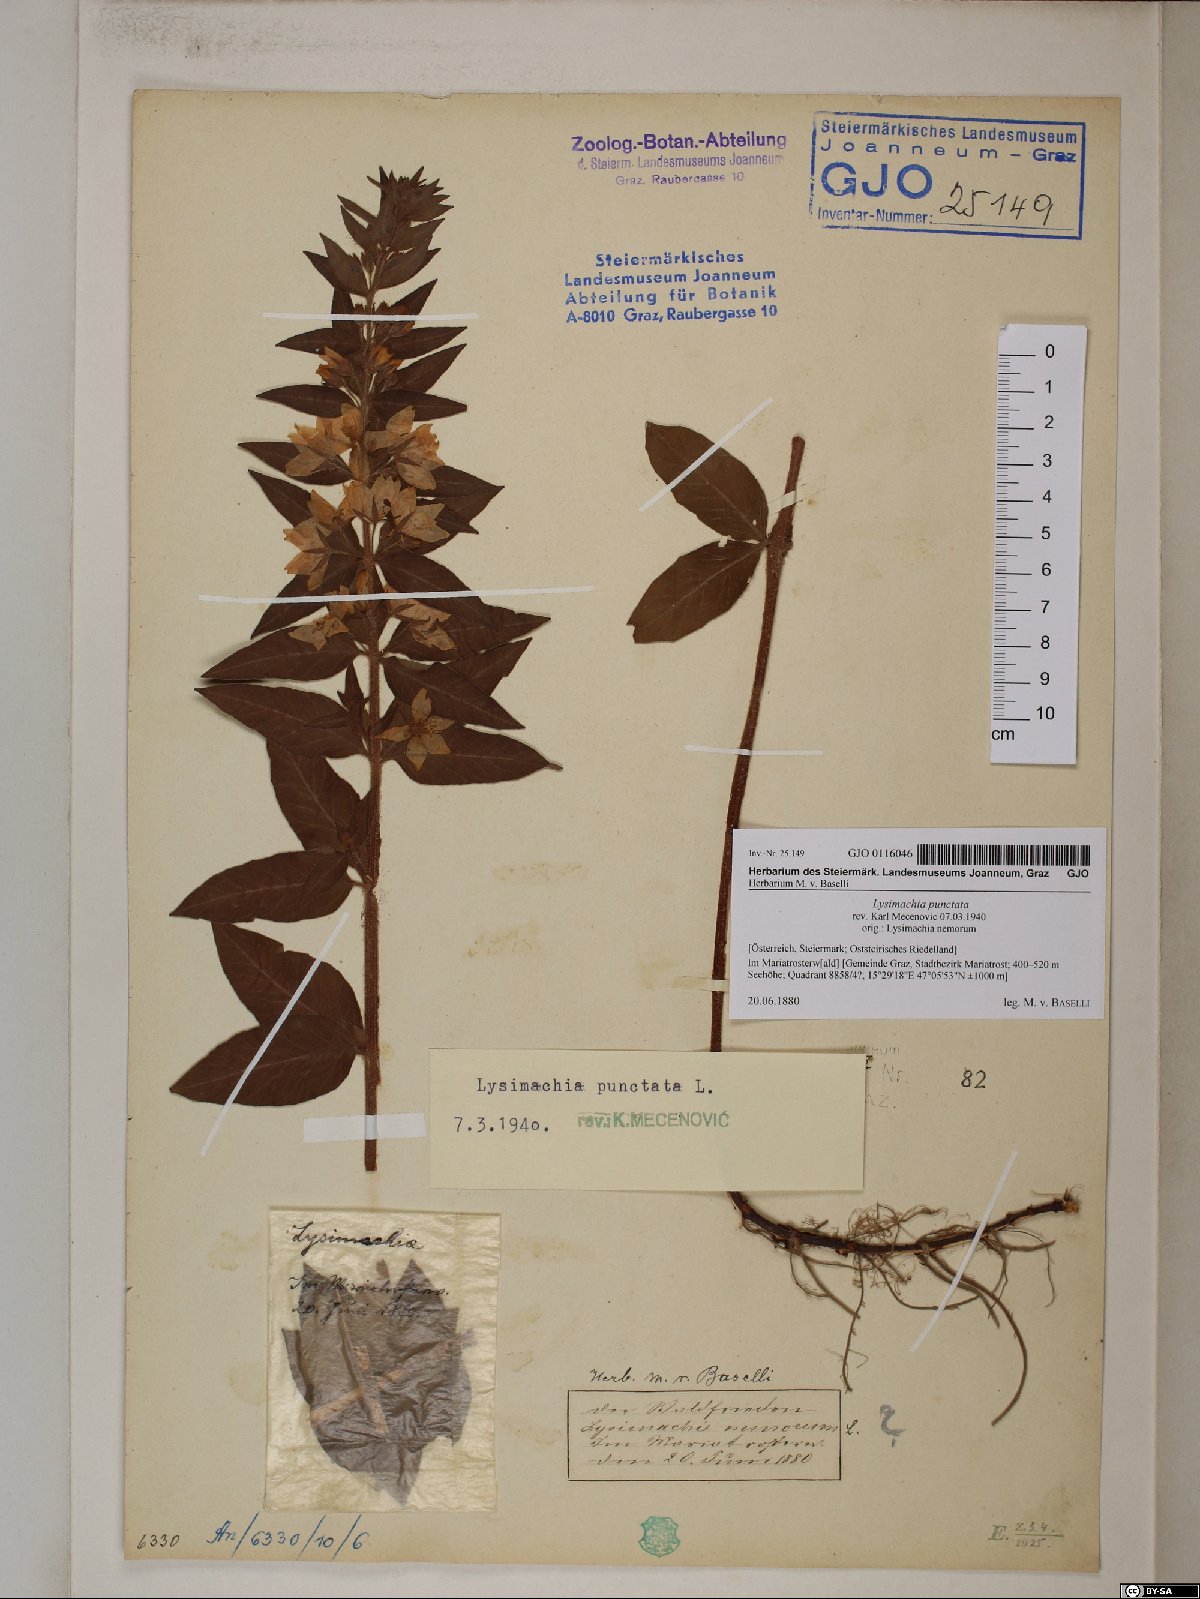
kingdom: Plantae
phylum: Tracheophyta
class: Magnoliopsida
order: Ericales
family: Primulaceae
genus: Lysimachia
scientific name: Lysimachia punctata
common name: Dotted loosestrife
